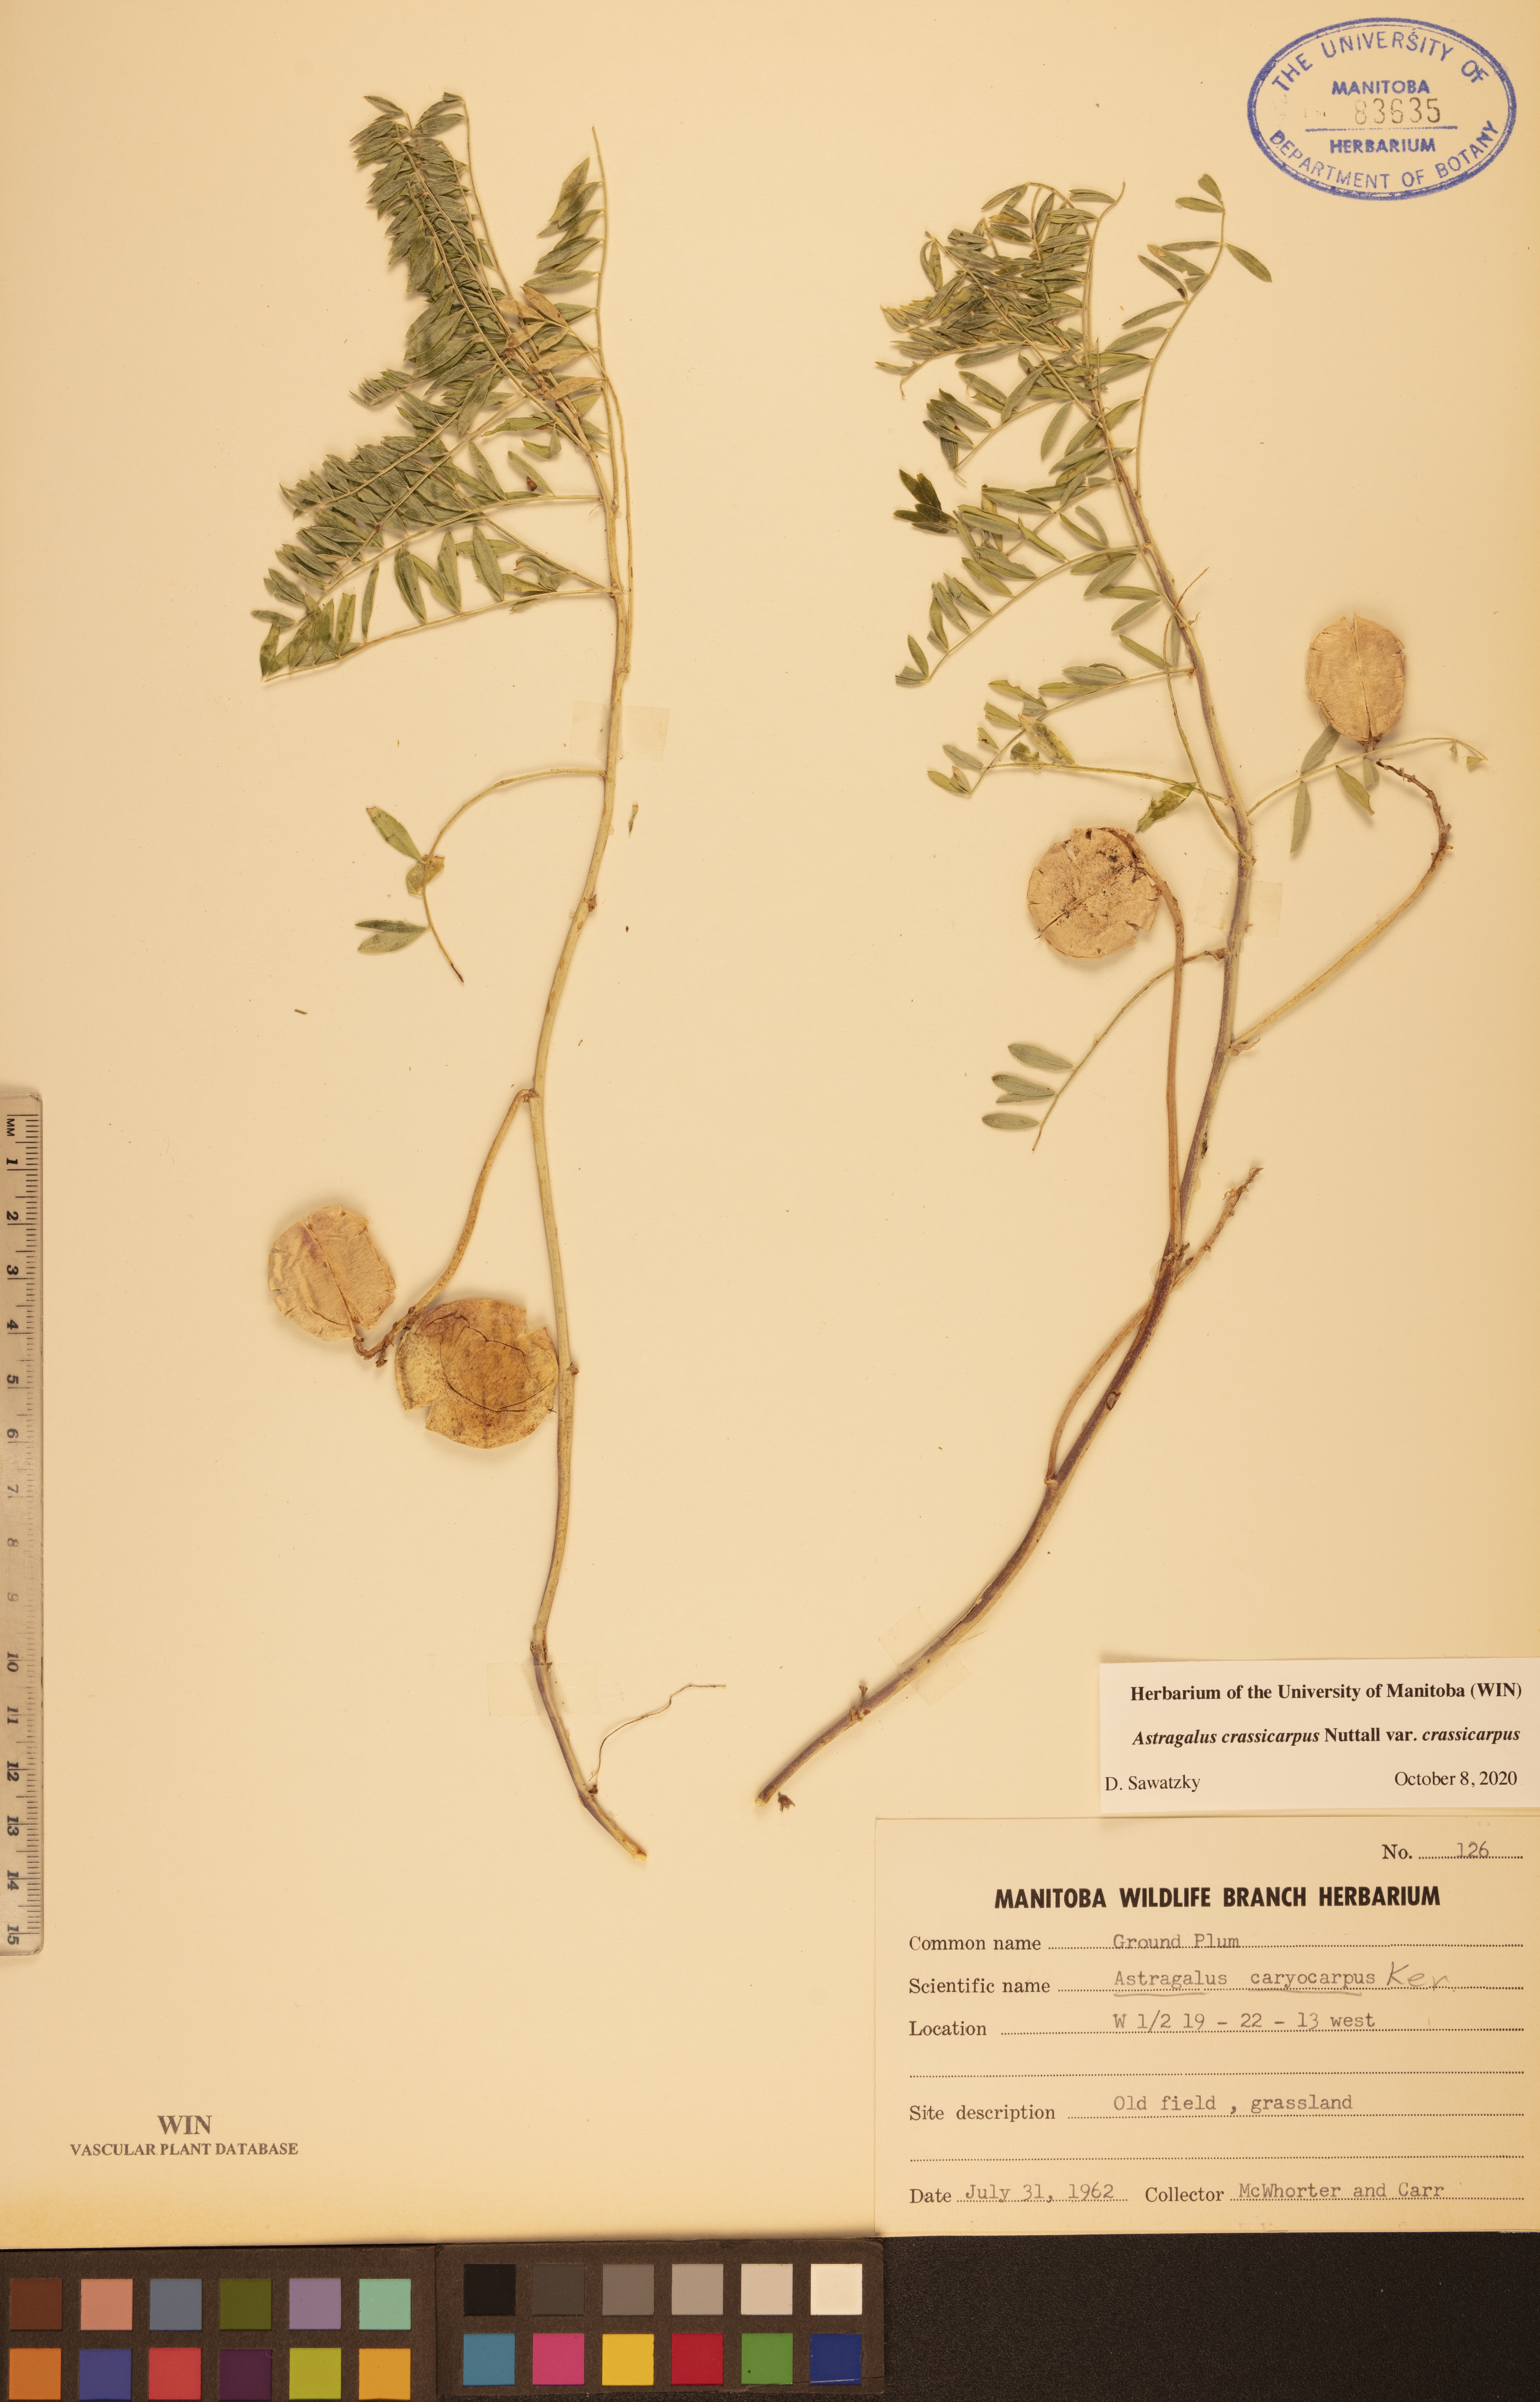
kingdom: Plantae
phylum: Tracheophyta
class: Magnoliopsida
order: Fabales
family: Fabaceae
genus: Astragalus
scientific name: Astragalus crassicarpus
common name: Ground-plum milk-vetch
